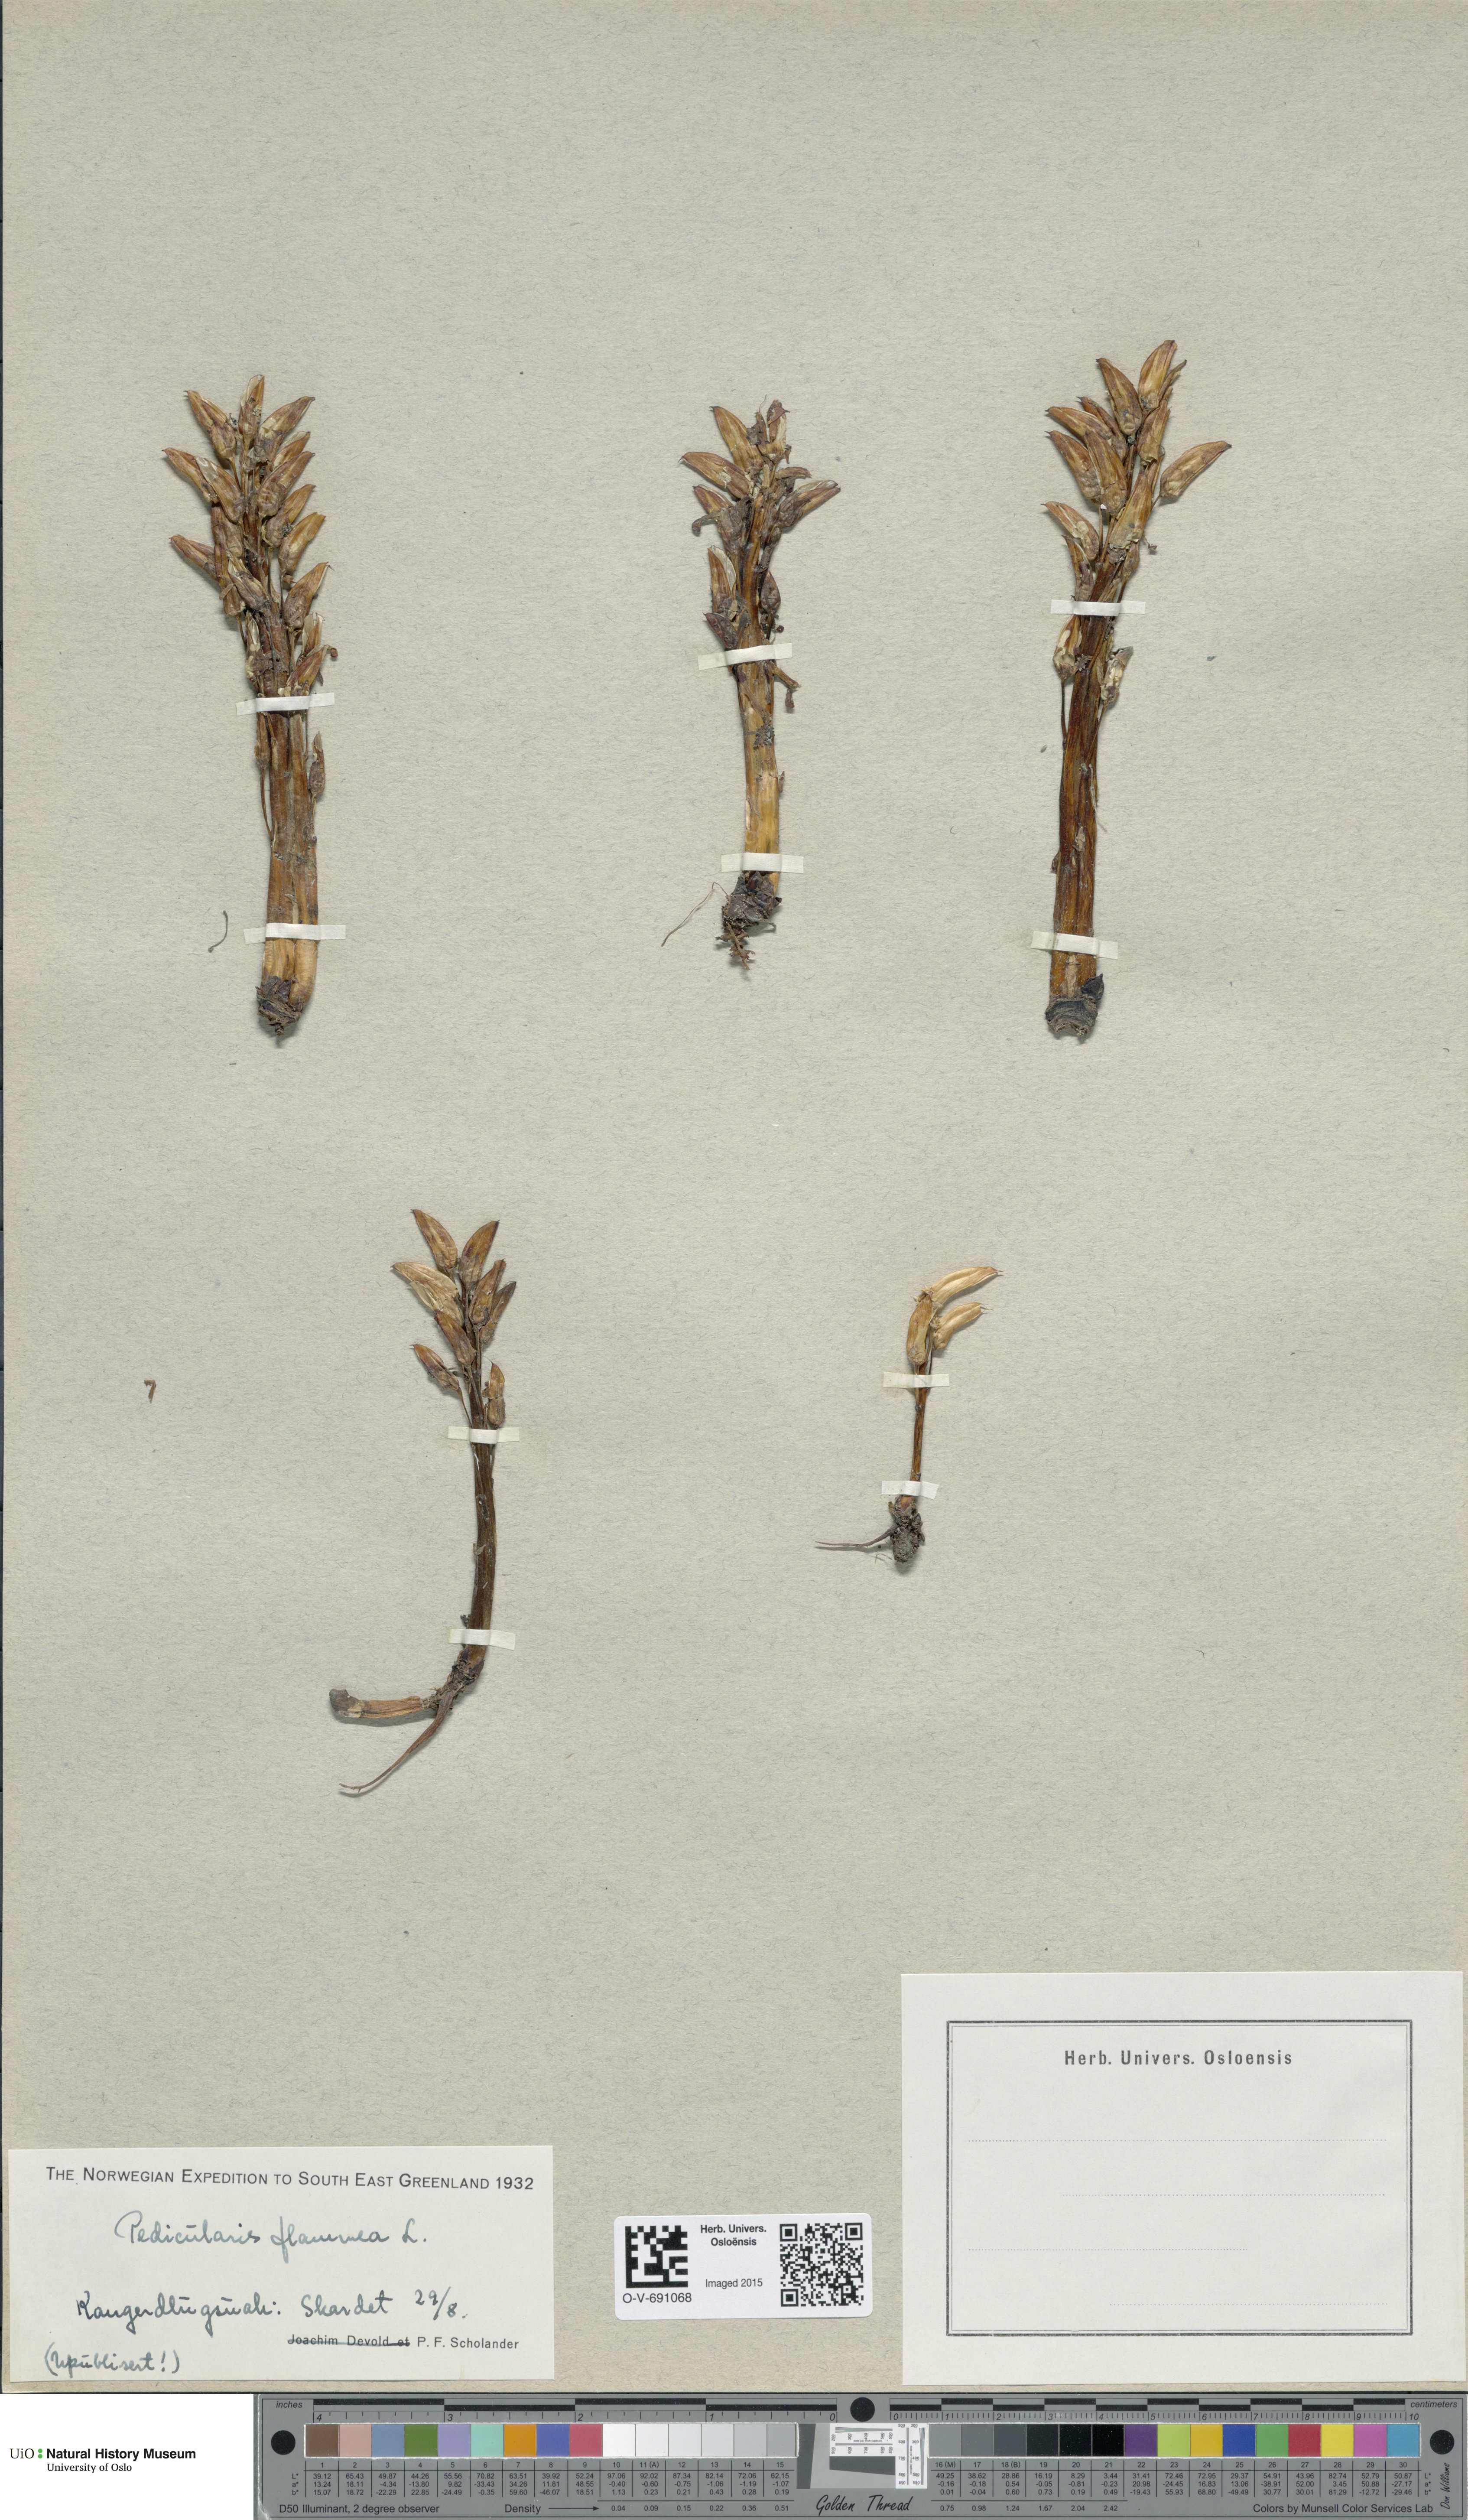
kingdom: Plantae
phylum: Tracheophyta
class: Magnoliopsida
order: Lamiales
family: Orobanchaceae
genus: Pedicularis
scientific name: Pedicularis flammea
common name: Flame-coloured lousewort
